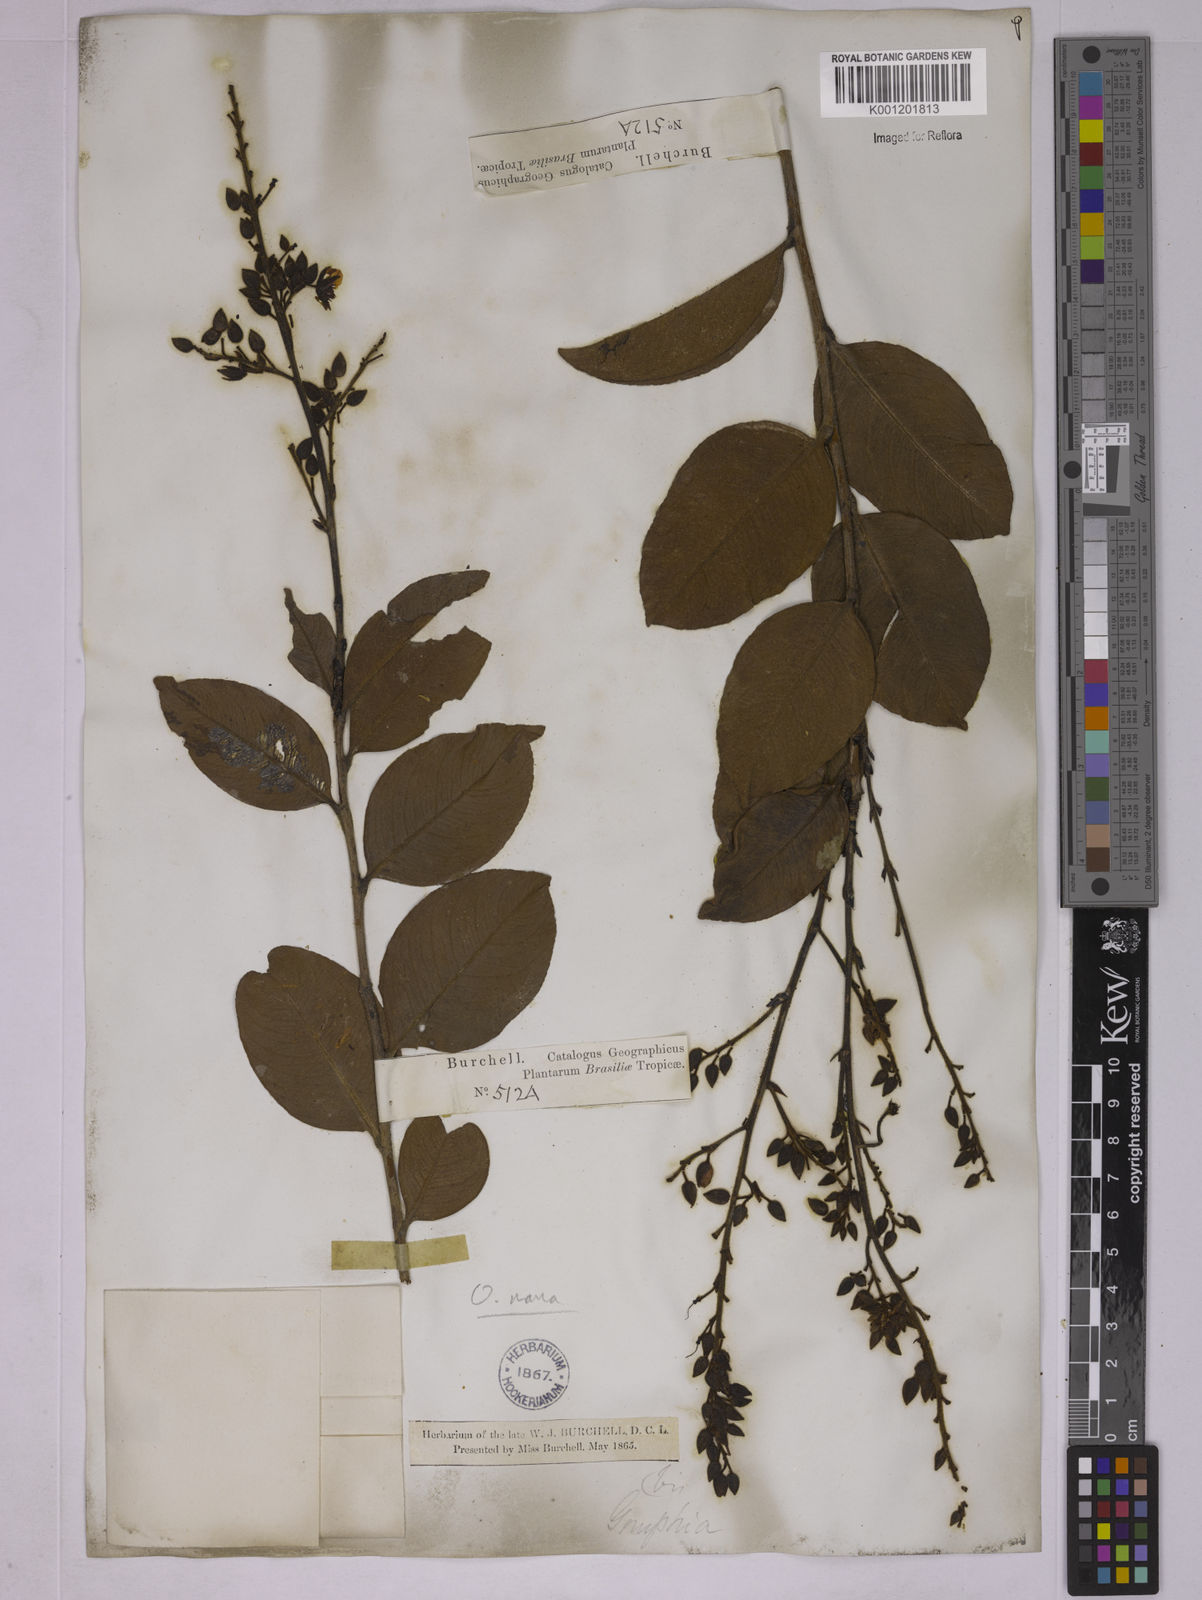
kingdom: Plantae
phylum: Tracheophyta
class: Magnoliopsida
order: Malpighiales
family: Ochnaceae
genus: Ouratea
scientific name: Ouratea nana
